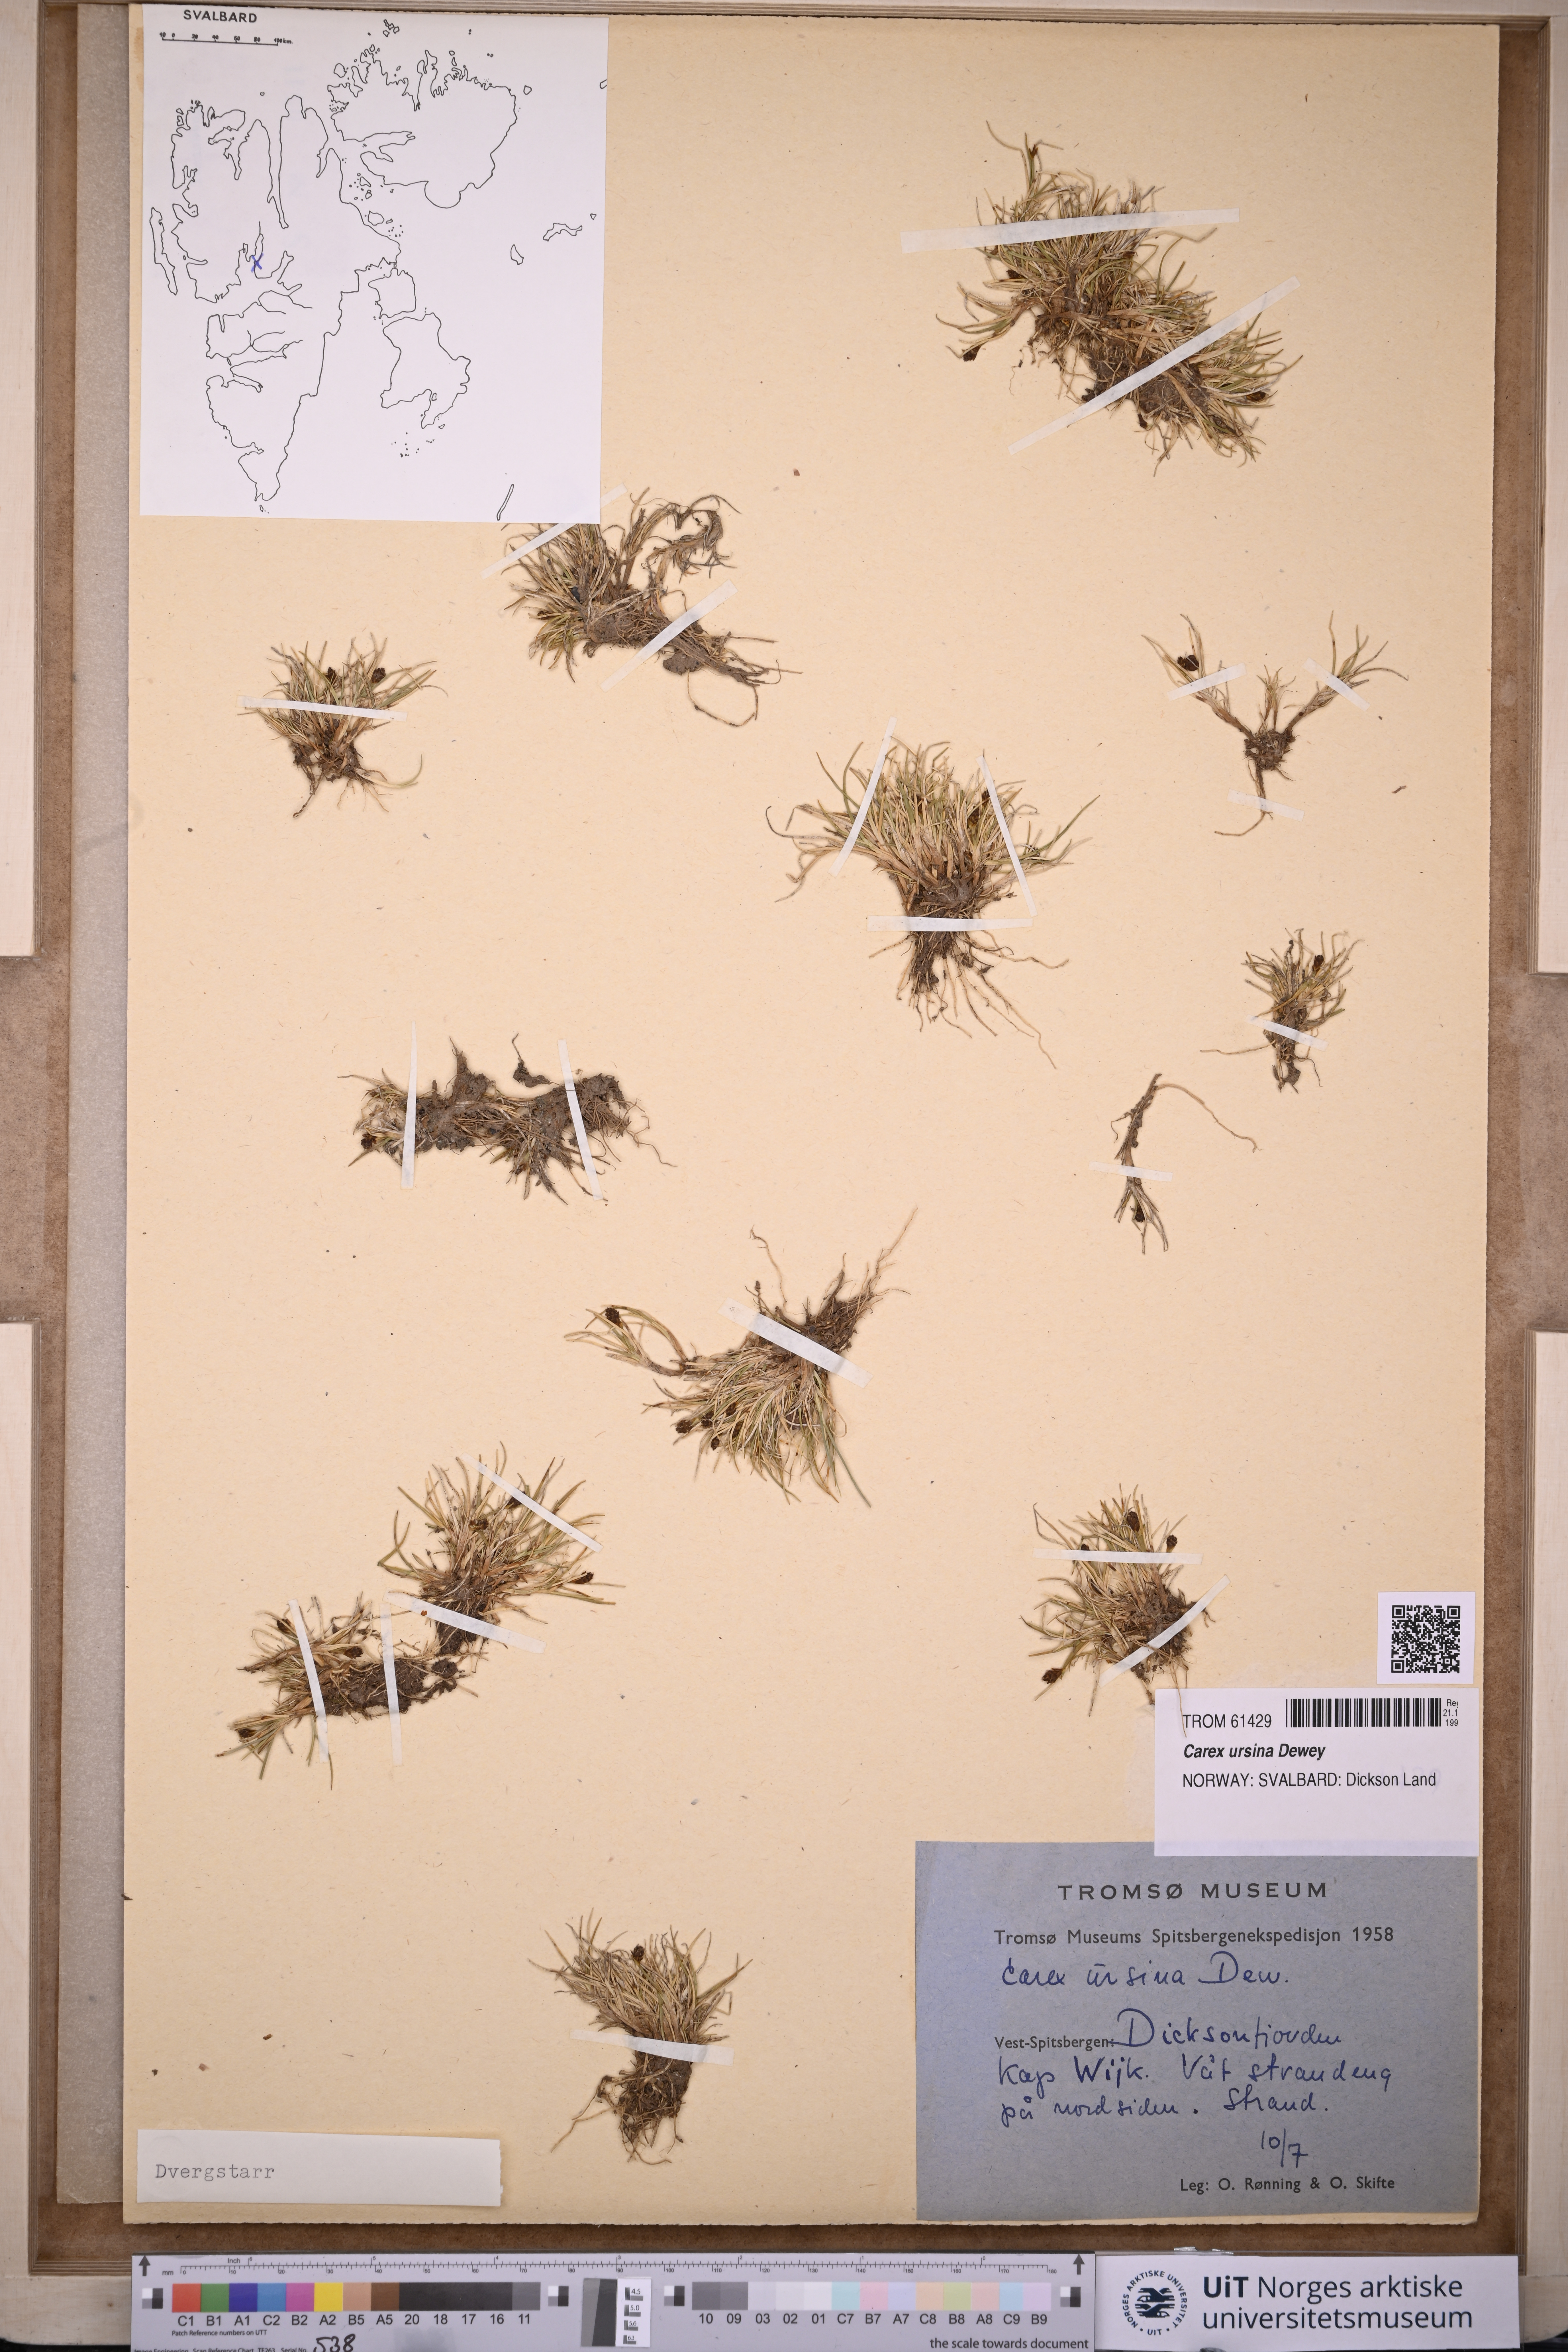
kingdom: Plantae
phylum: Tracheophyta
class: Liliopsida
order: Poales
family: Cyperaceae
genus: Carex
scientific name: Carex ursina
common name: Bear sedge
